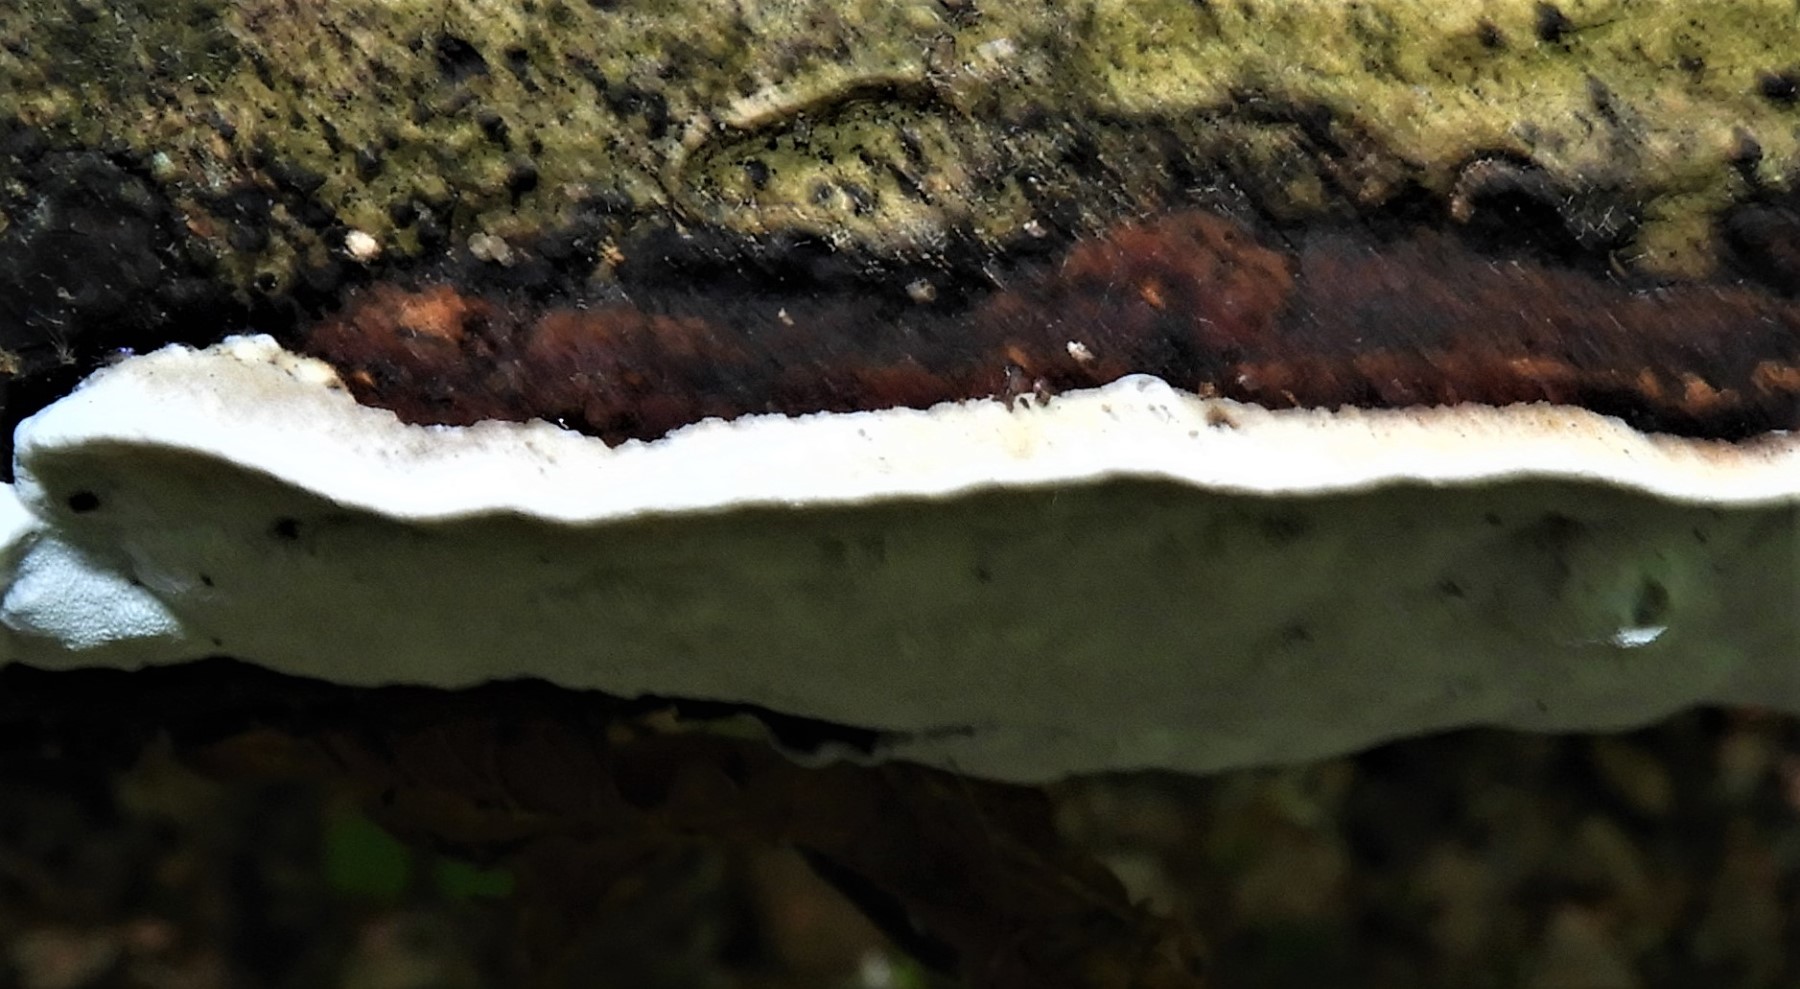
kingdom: Fungi
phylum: Basidiomycota
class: Agaricomycetes
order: Polyporales
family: Incrustoporiaceae
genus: Skeletocutis
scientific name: Skeletocutis nemoralis
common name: stor krystalporesvamp
